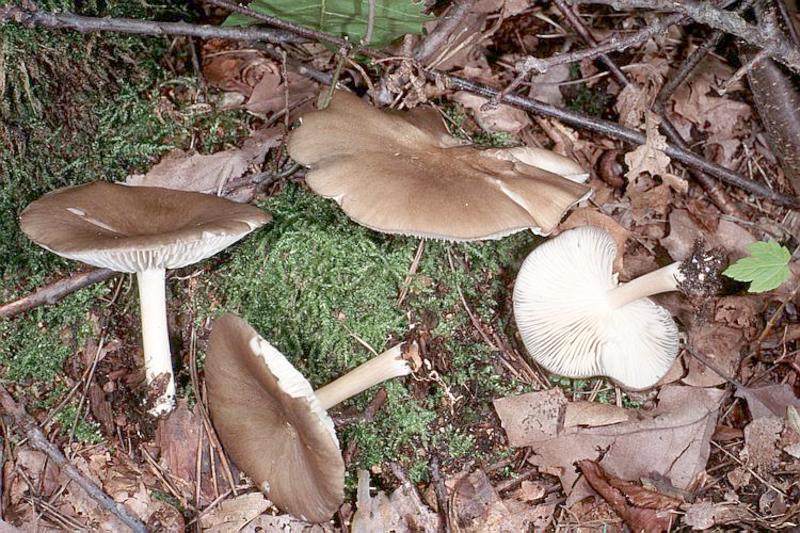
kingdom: Fungi
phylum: Basidiomycota
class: Agaricomycetes
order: Agaricales
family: Tricholomataceae
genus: Megacollybia
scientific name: Megacollybia platyphylla
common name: Whitelaced shank
